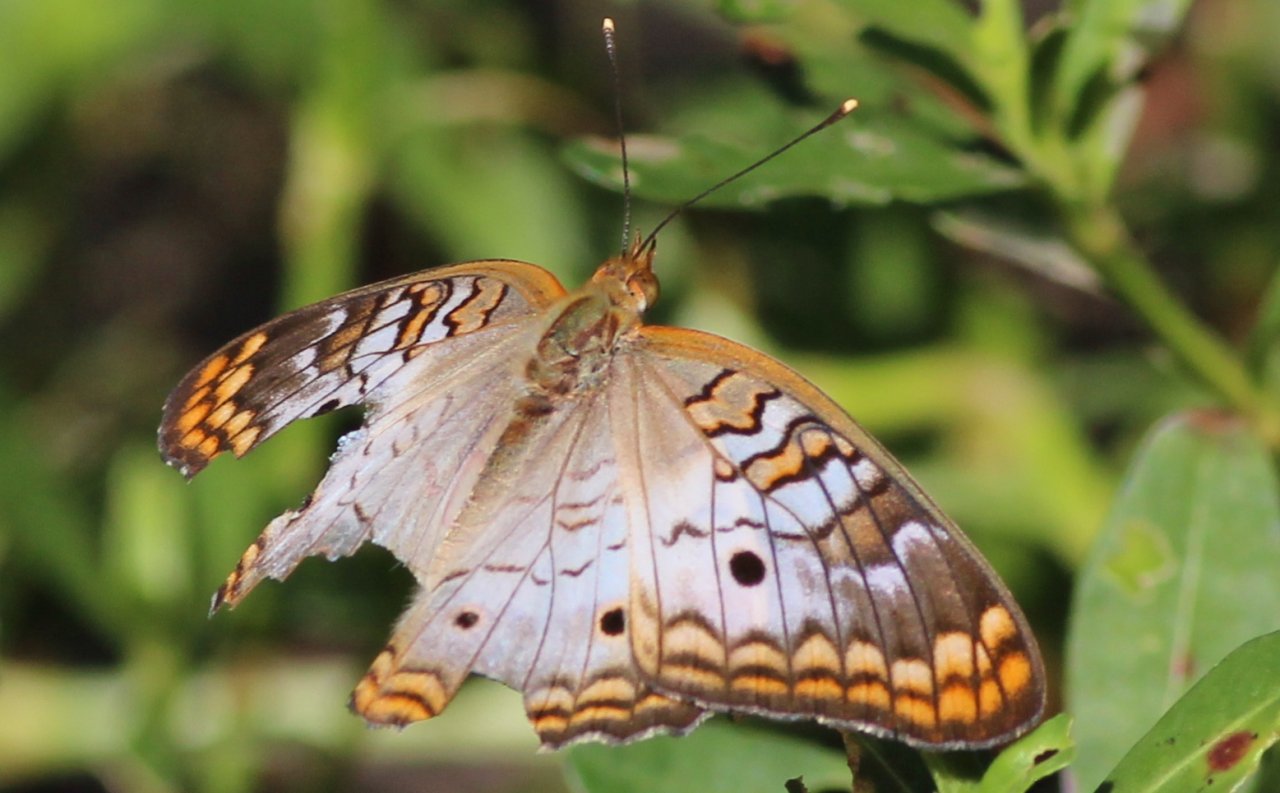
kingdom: Animalia
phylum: Arthropoda
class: Insecta
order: Lepidoptera
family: Nymphalidae
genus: Anartia
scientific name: Anartia jatrophae
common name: White Peacock
